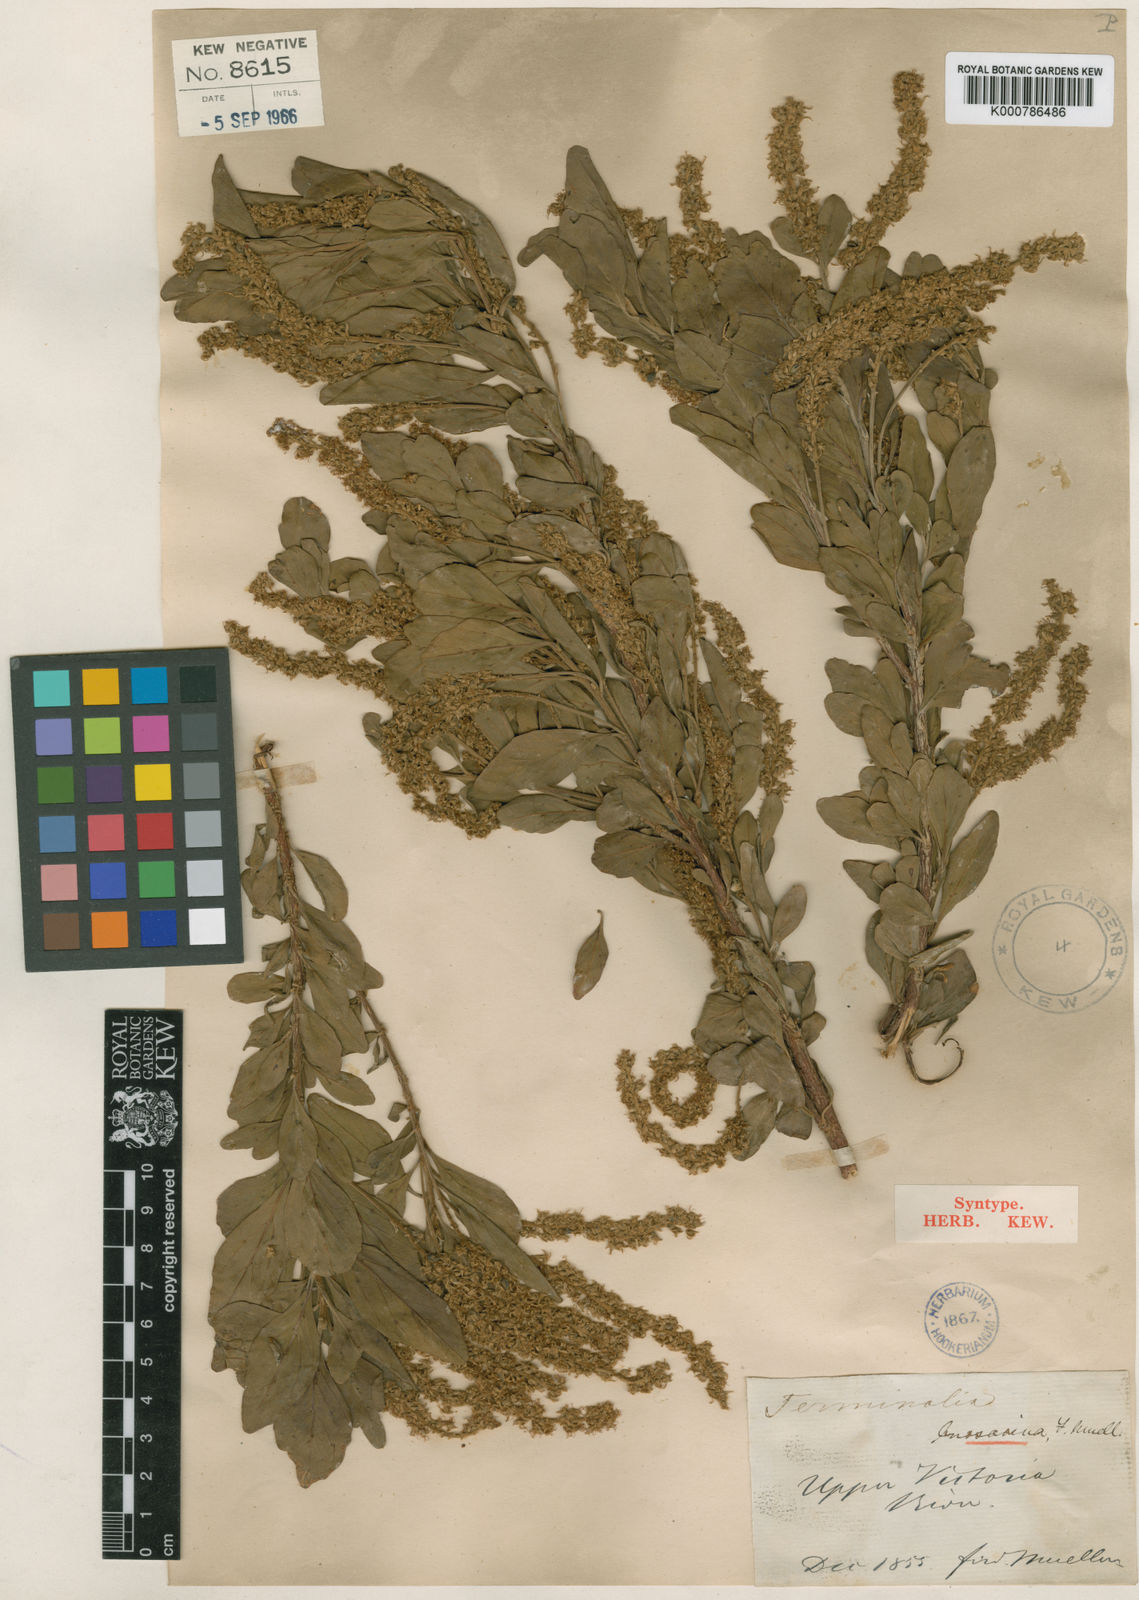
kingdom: Plantae
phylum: Tracheophyta
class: Magnoliopsida
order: Myrtales
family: Combretaceae
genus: Terminalia
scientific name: Terminalia canescens
